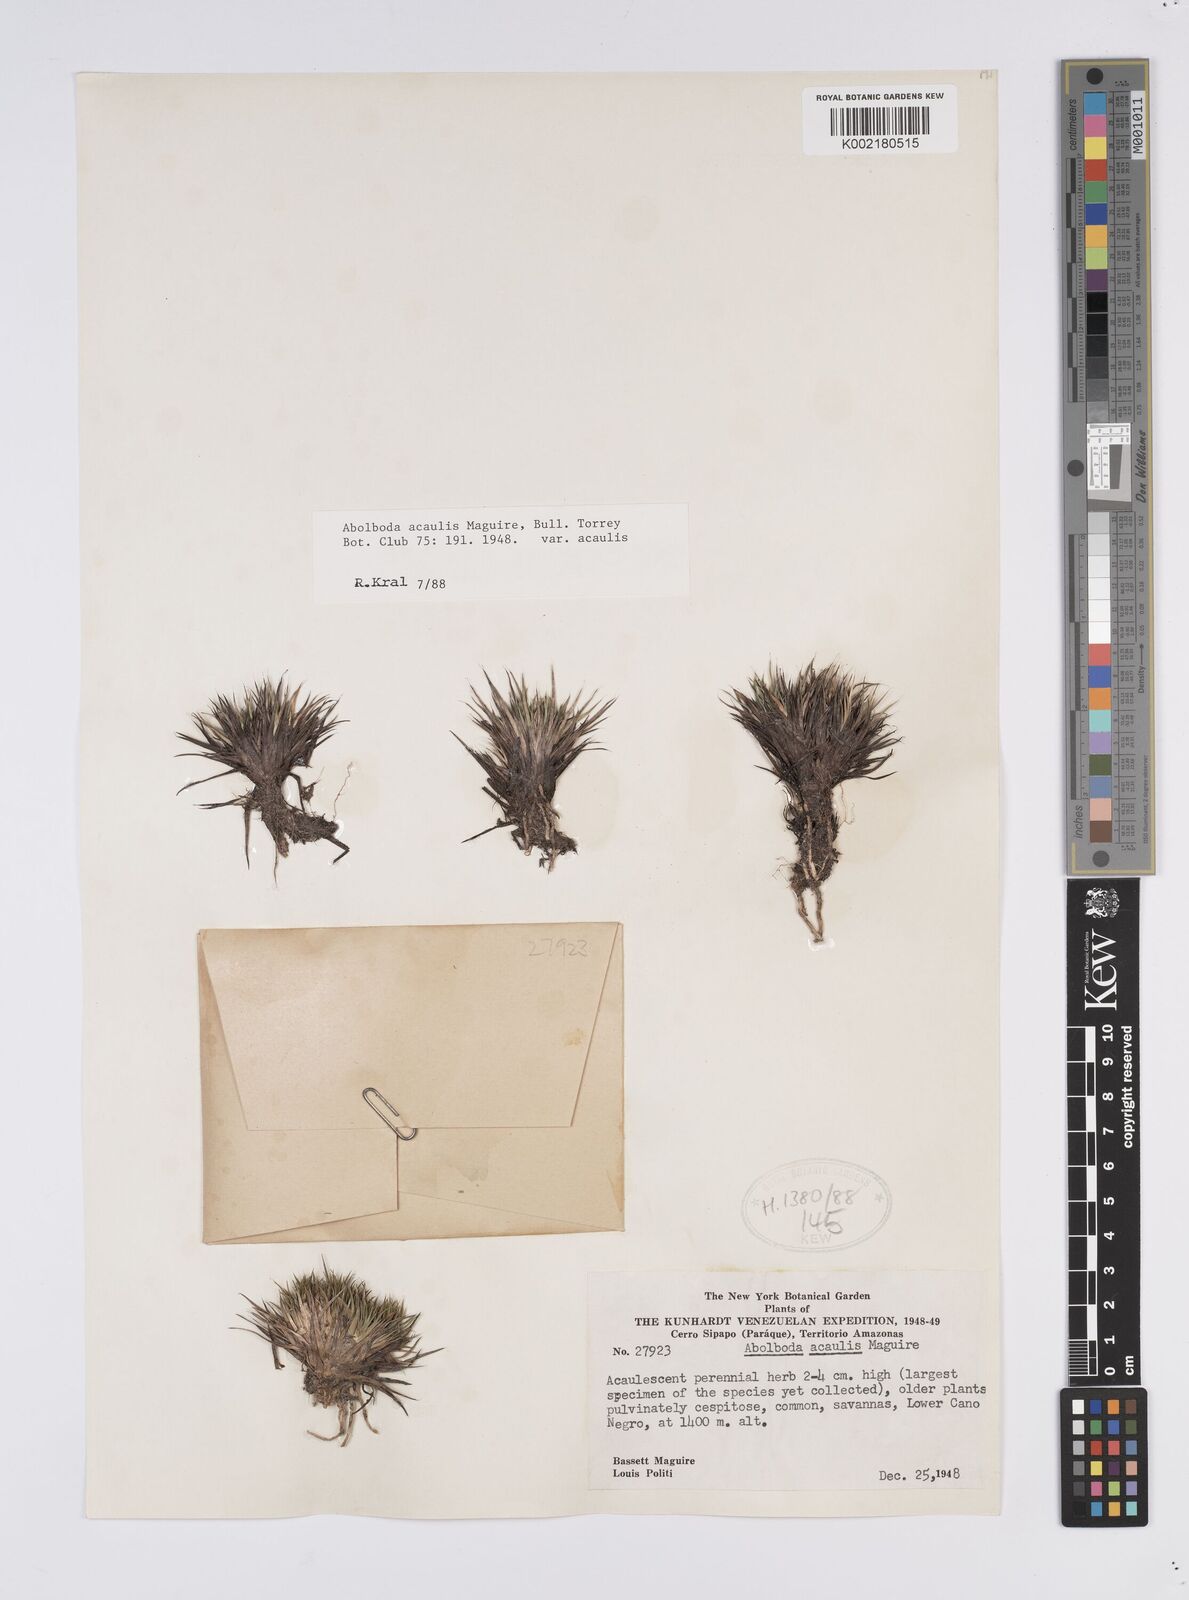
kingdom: Plantae
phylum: Tracheophyta
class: Liliopsida
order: Poales
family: Xyridaceae
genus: Abolboda
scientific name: Abolboda acaulis
